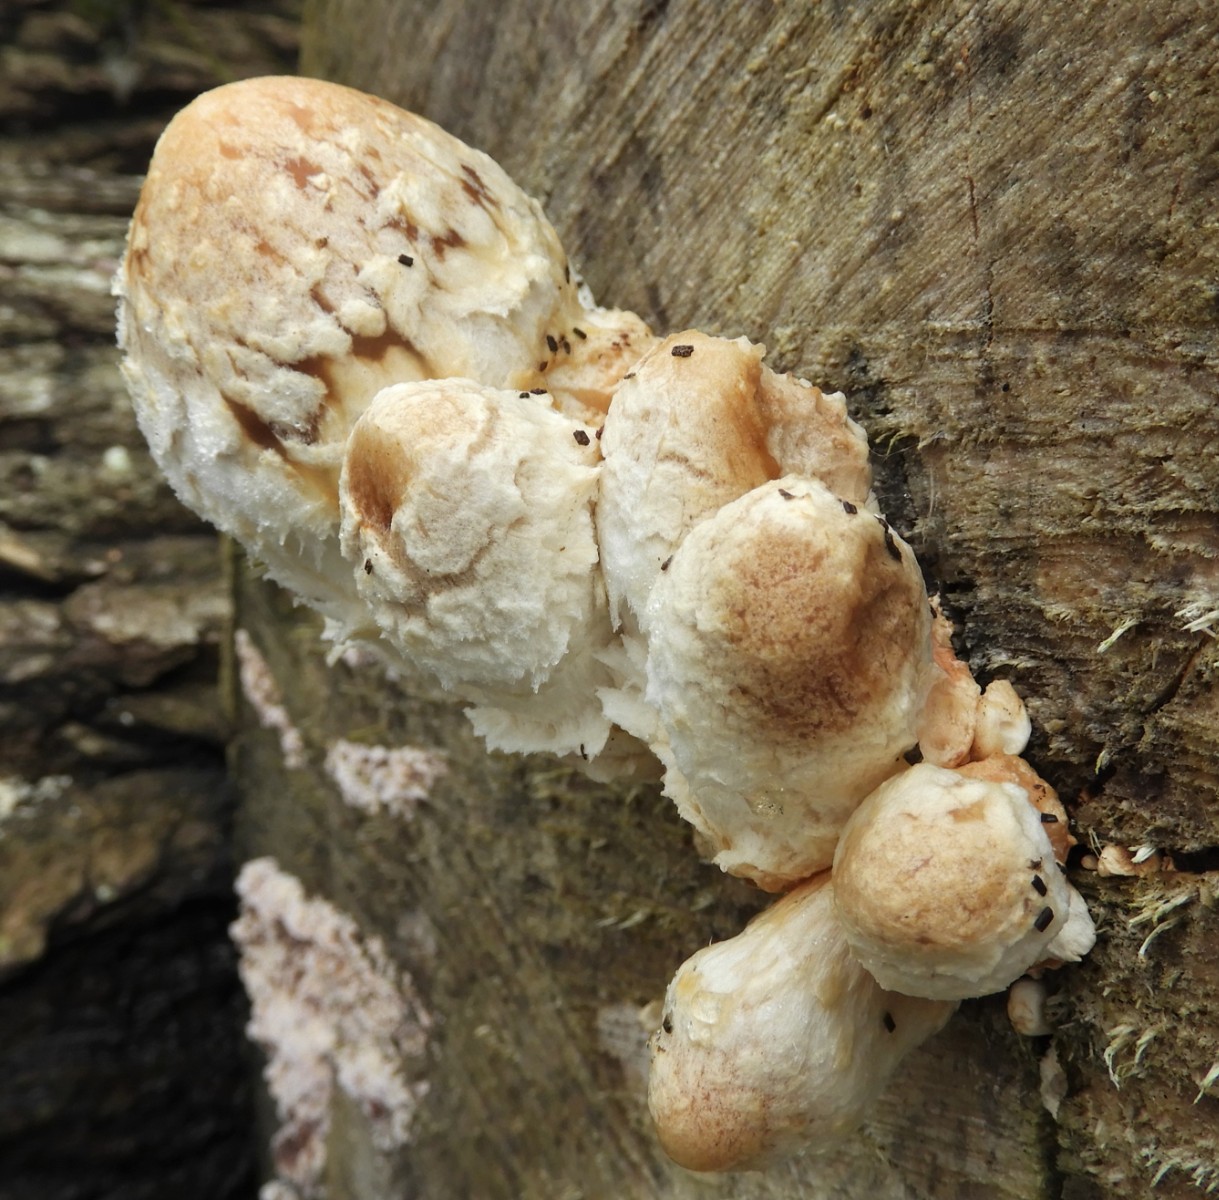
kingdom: Fungi
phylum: Basidiomycota
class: Agaricomycetes
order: Agaricales
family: Strophariaceae
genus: Pholiota
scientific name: Pholiota populnea
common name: poppel-kæmpeskælhat
